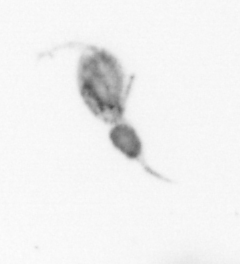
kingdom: Animalia
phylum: Arthropoda
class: Copepoda
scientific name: Copepoda
